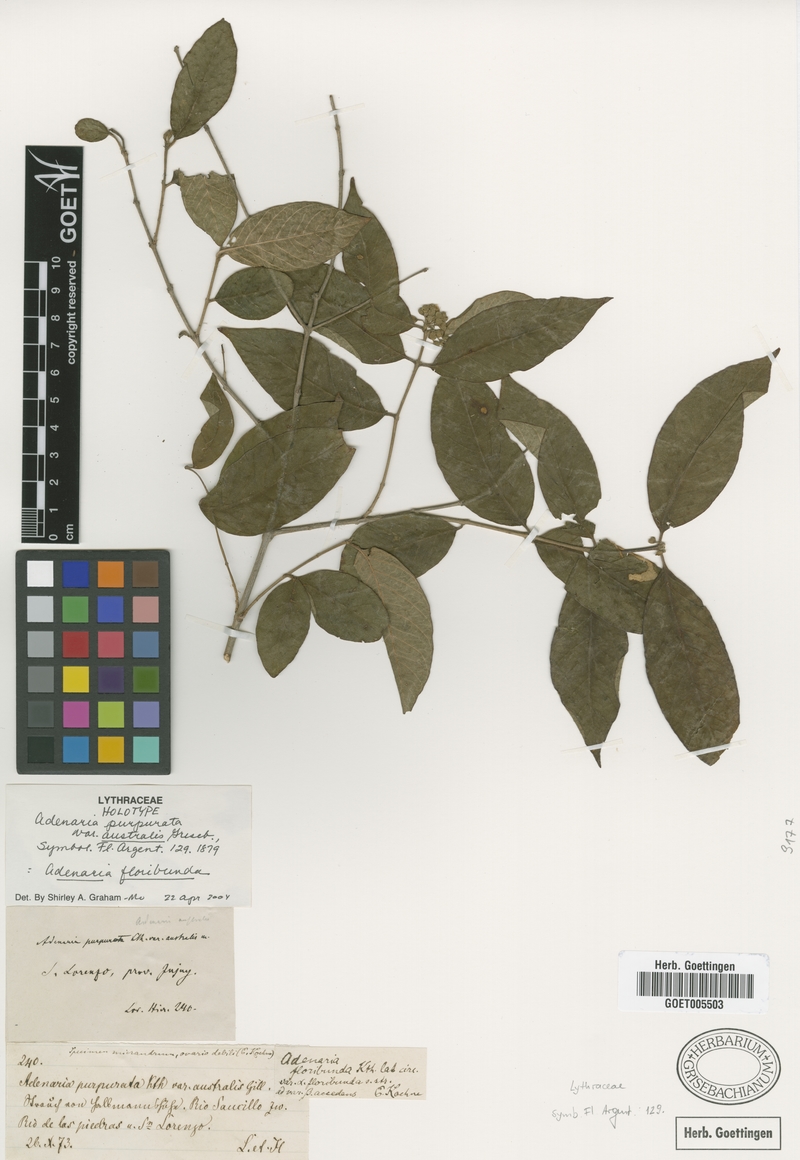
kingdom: Plantae
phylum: Tracheophyta
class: Magnoliopsida
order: Myrtales
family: Lythraceae
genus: Adenaria
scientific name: Adenaria floribunda
